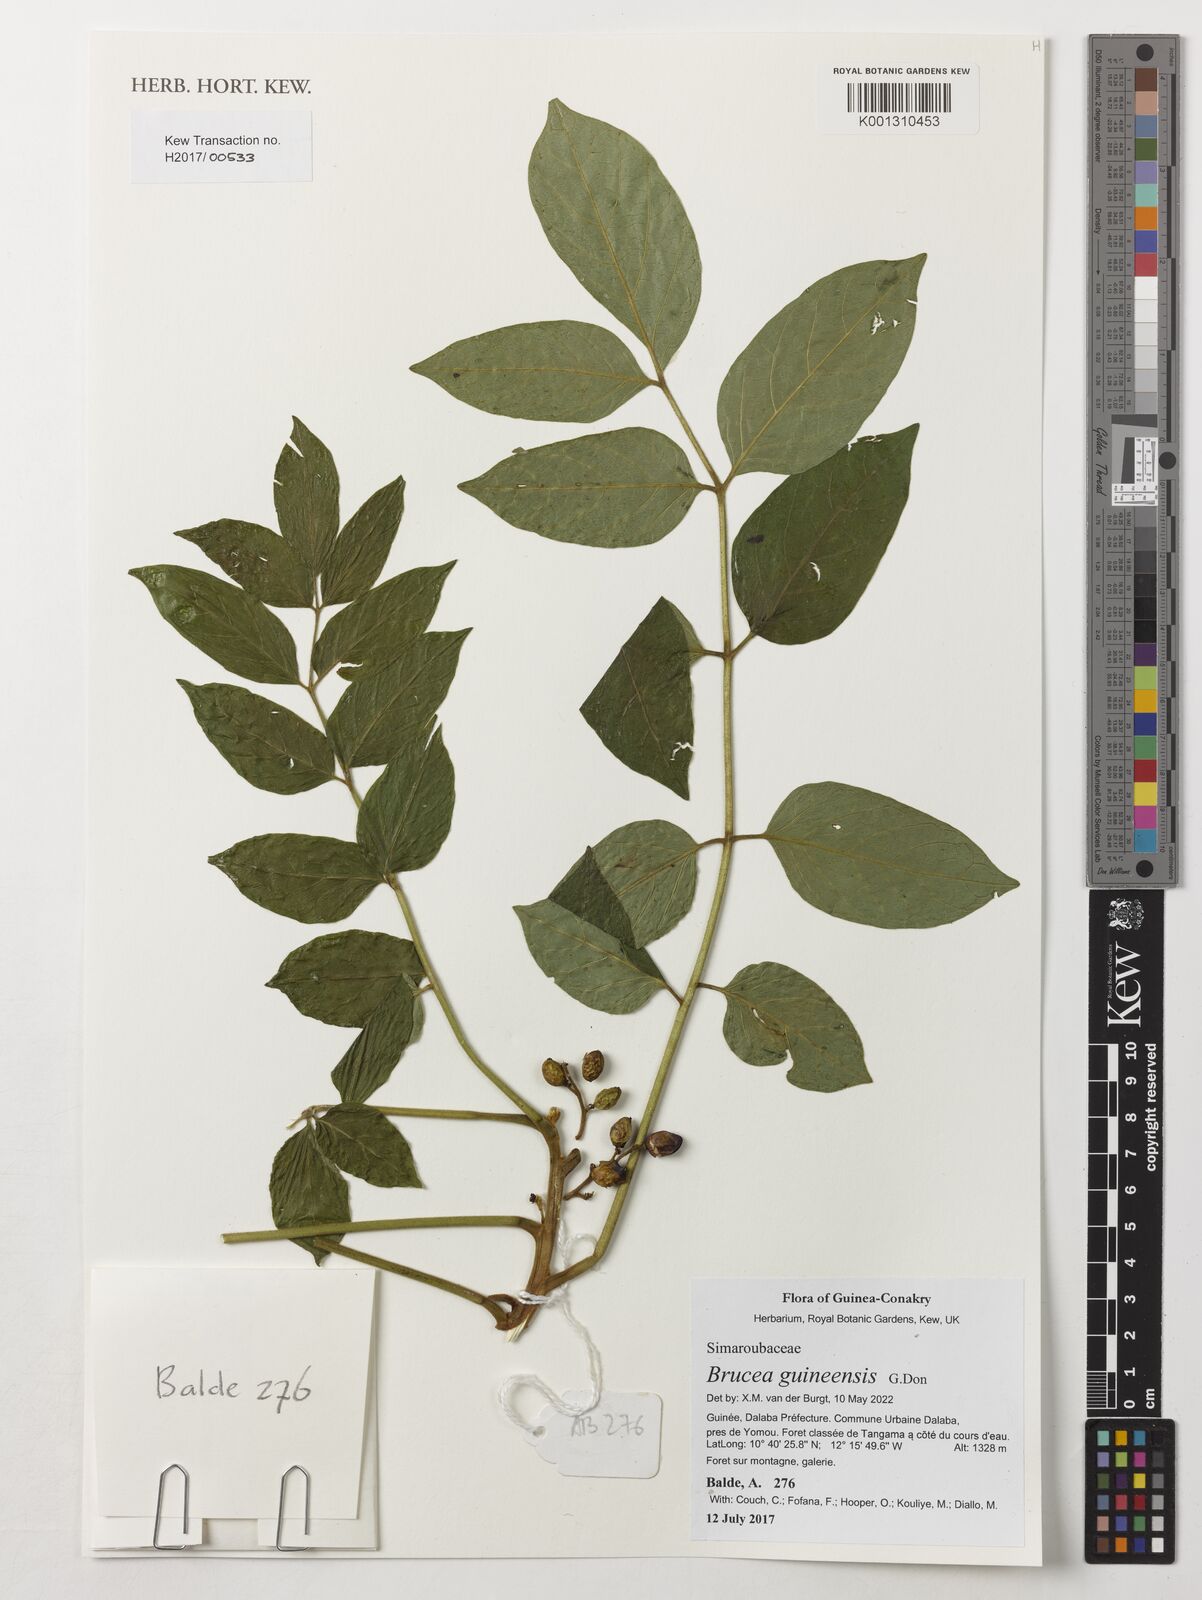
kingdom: Plantae
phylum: Tracheophyta
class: Magnoliopsida
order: Sapindales
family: Anacardiaceae
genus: Trichoscypha
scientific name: Trichoscypha smythei
